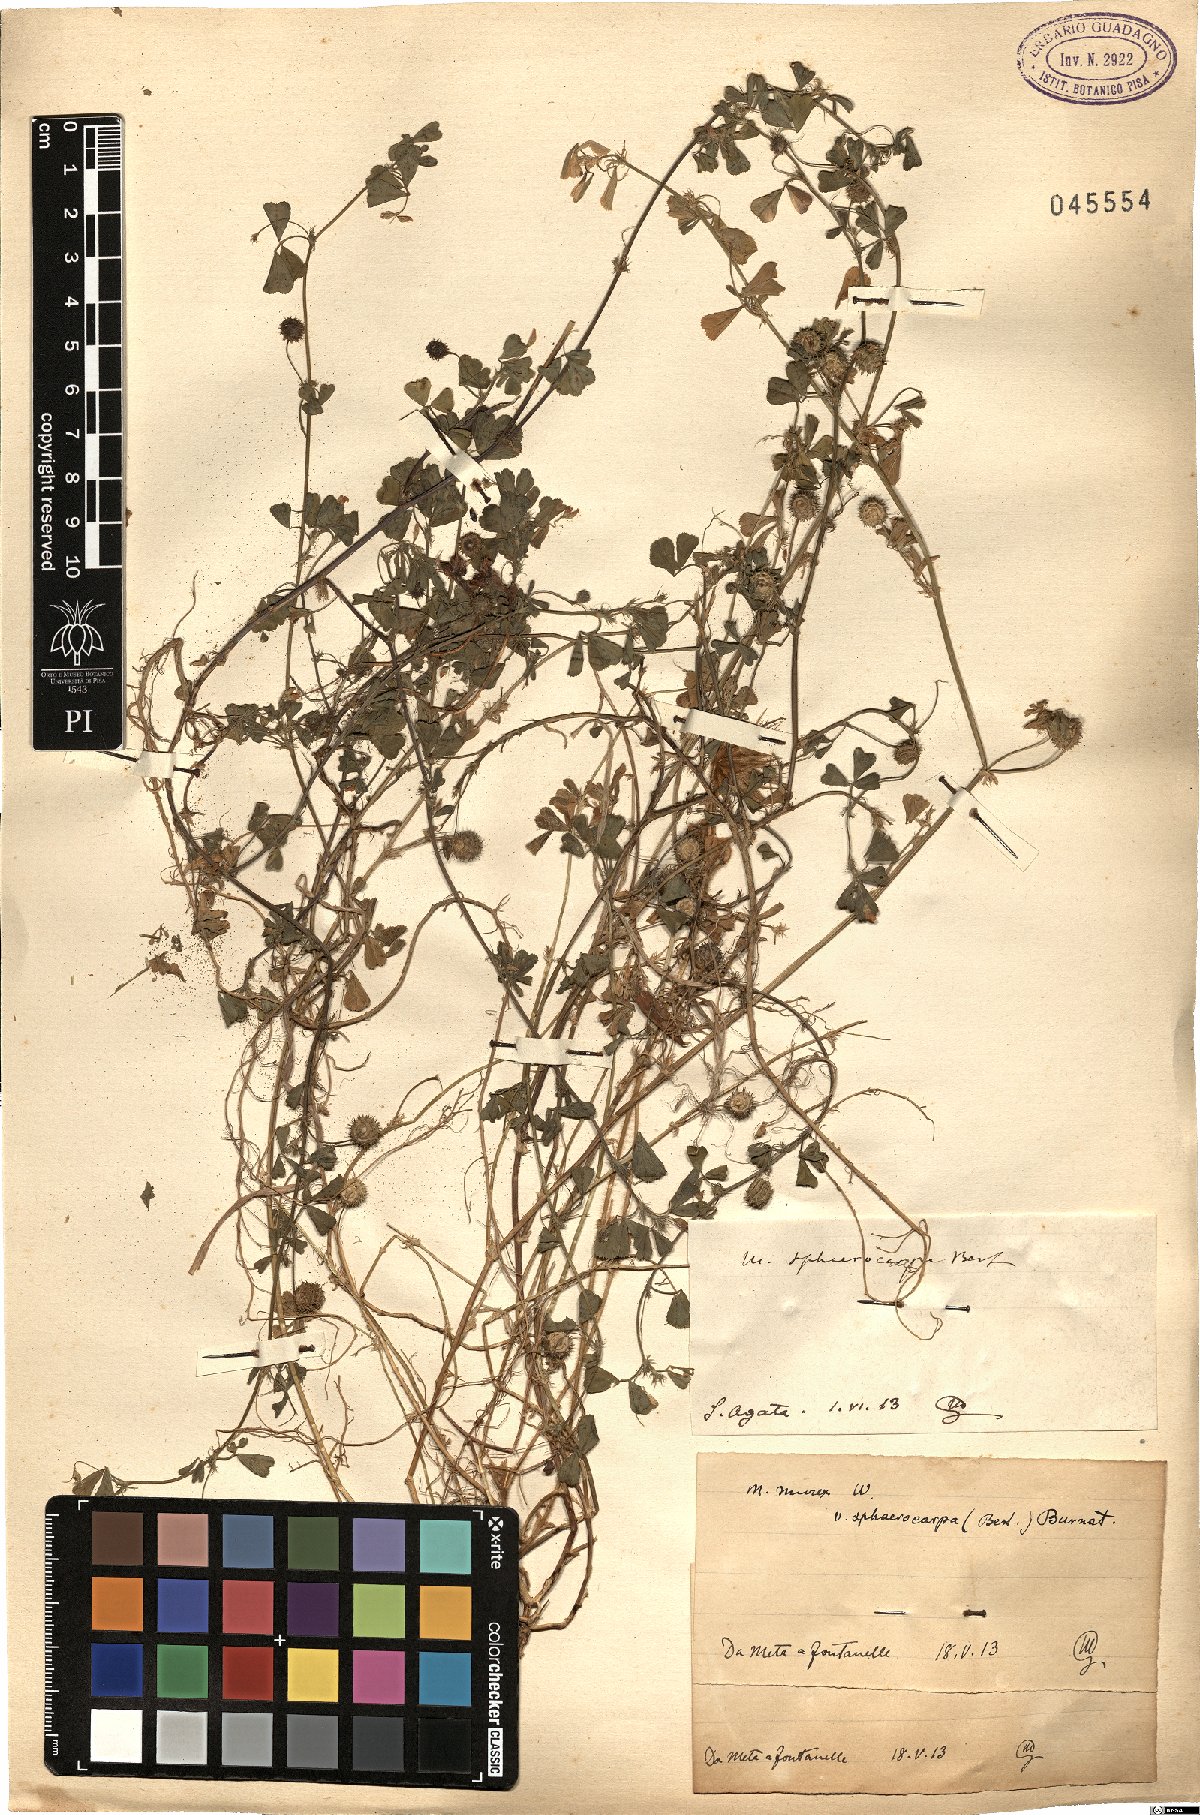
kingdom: Plantae
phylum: Tracheophyta
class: Magnoliopsida
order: Fabales
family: Fabaceae
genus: Medicago
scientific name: Medicago sphaerocarpos
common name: Sphere medic
